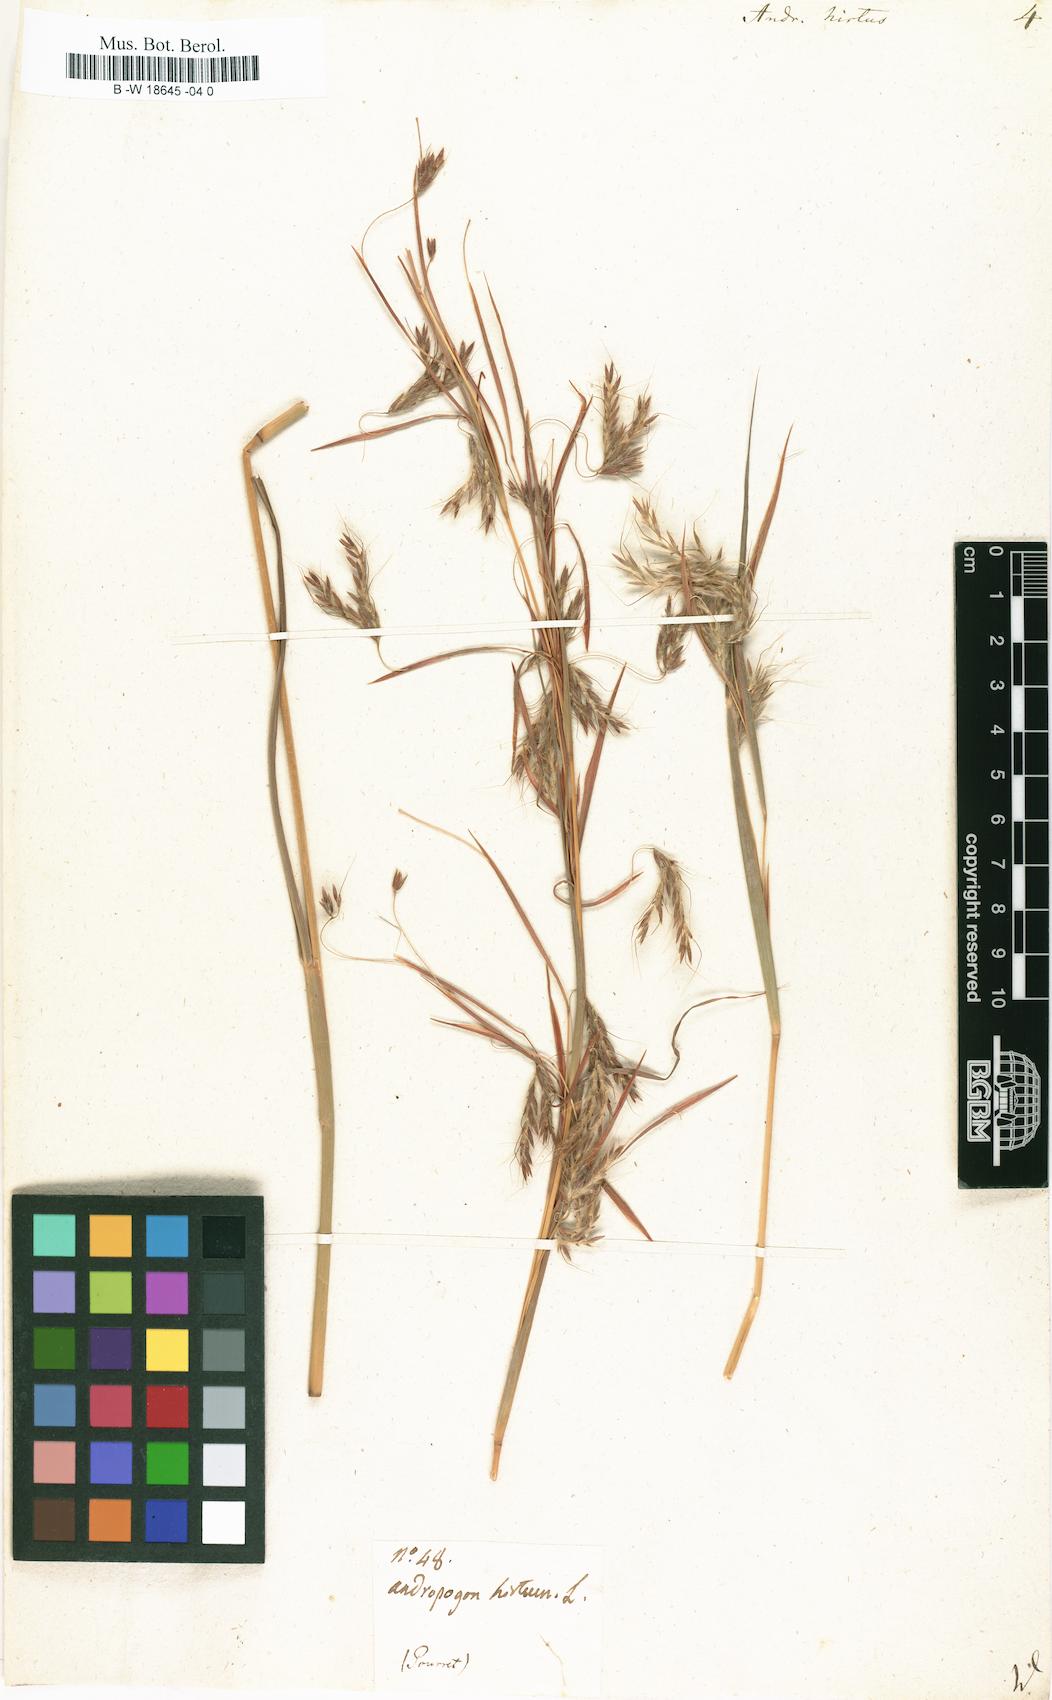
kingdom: Plantae
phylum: Tracheophyta
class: Liliopsida
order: Poales
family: Poaceae
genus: Hyparrhenia
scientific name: Hyparrhenia hirta
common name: Thatching grass
